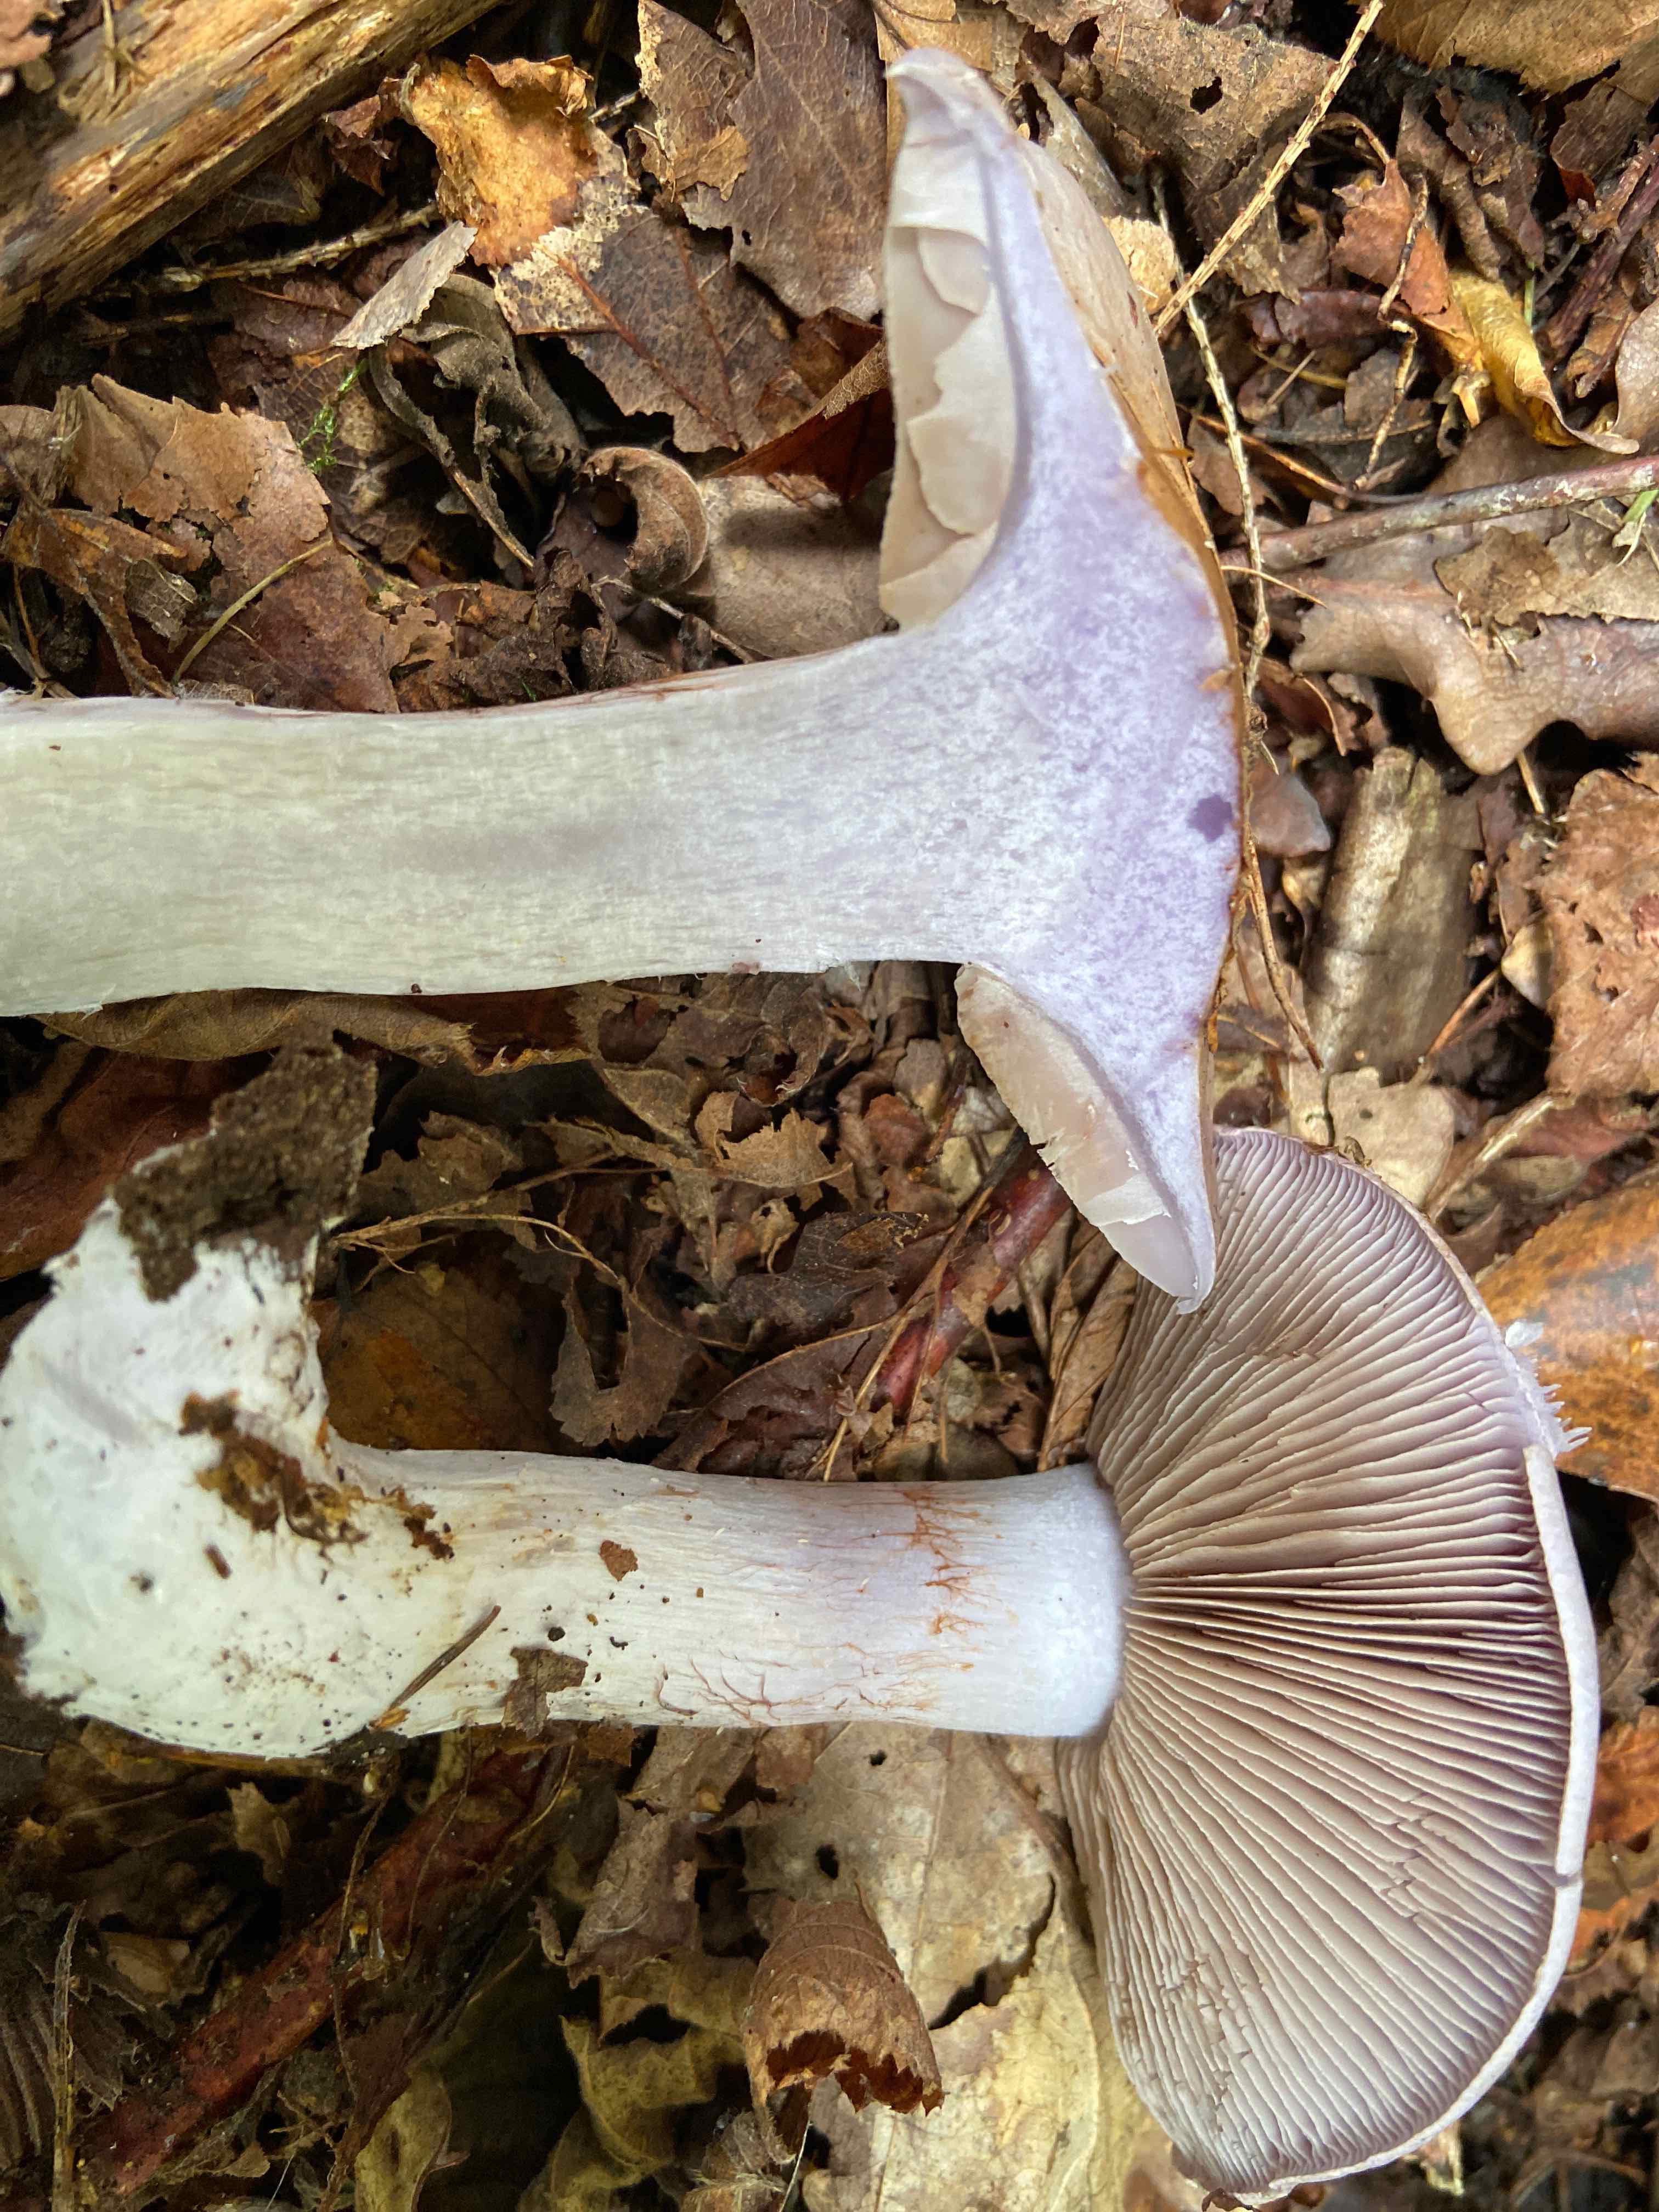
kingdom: Fungi
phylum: Basidiomycota
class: Agaricomycetes
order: Agaricales
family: Cortinariaceae
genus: Cortinarius
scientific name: Cortinarius
